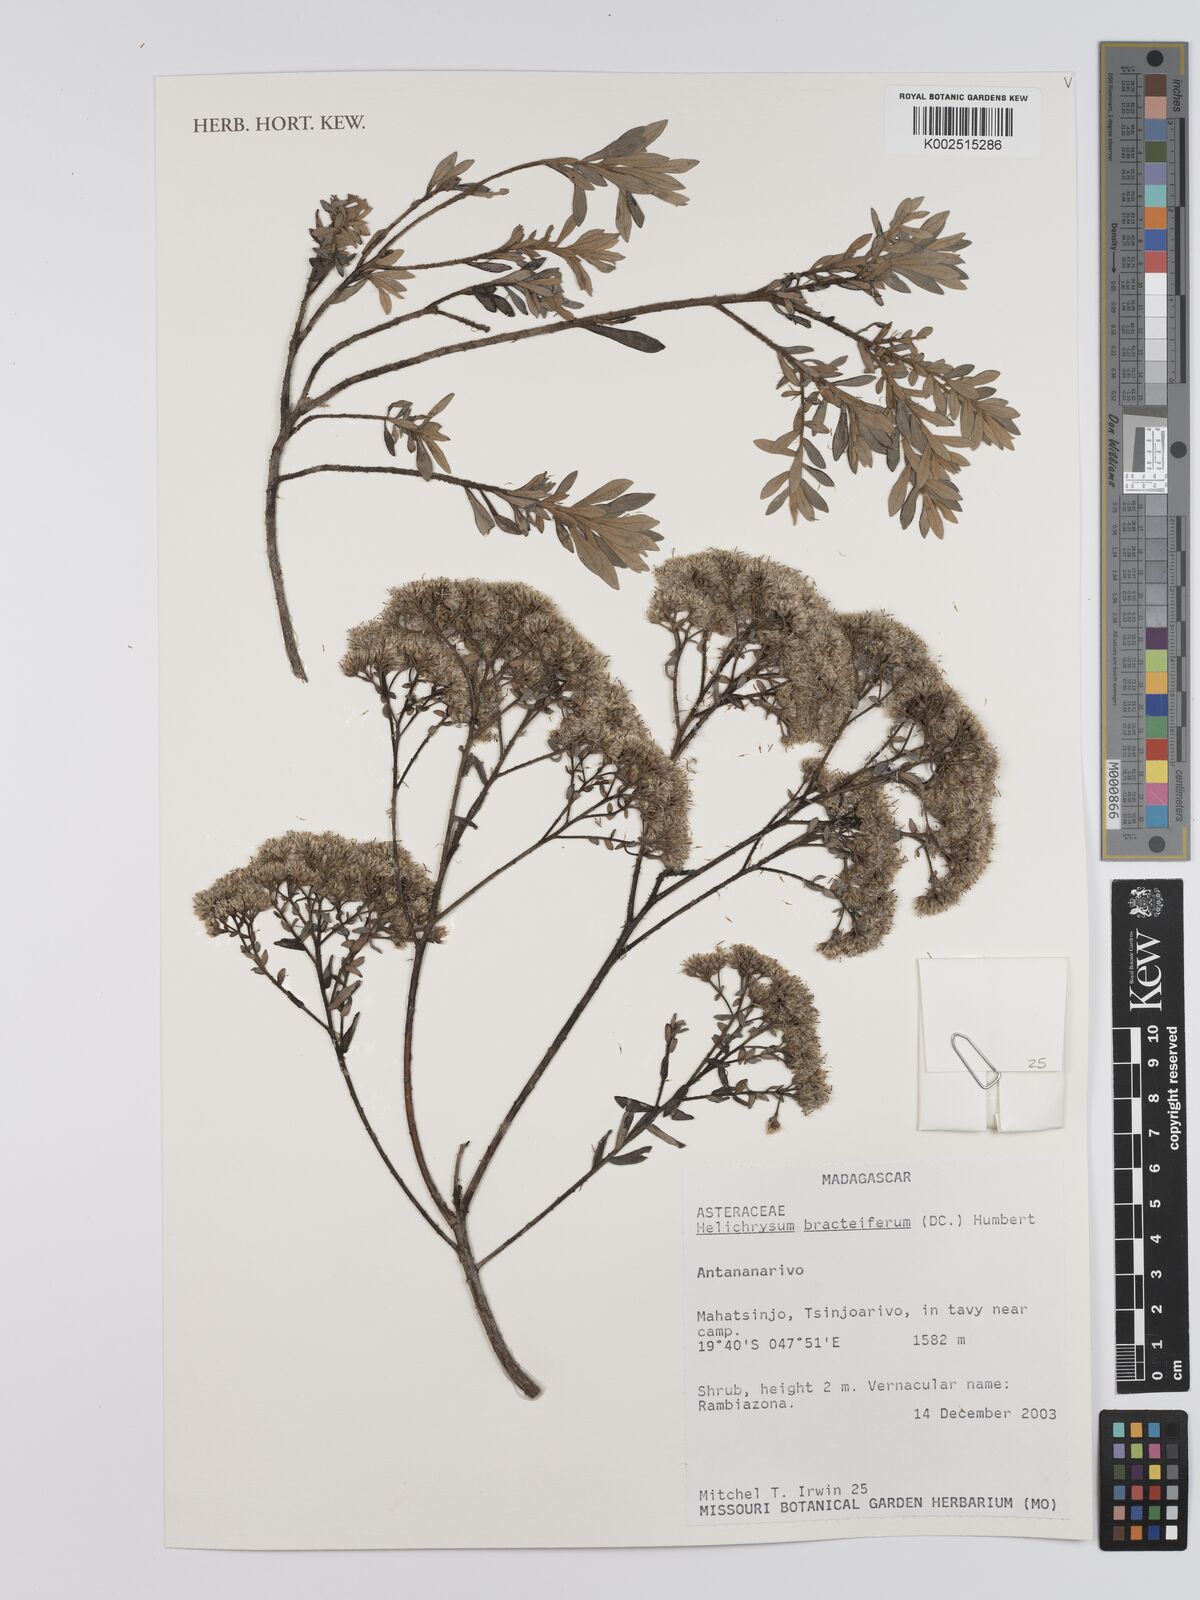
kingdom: Plantae
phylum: Tracheophyta
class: Magnoliopsida
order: Asterales
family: Asteraceae
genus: Helichrysum
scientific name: Helichrysum bracteiferum
